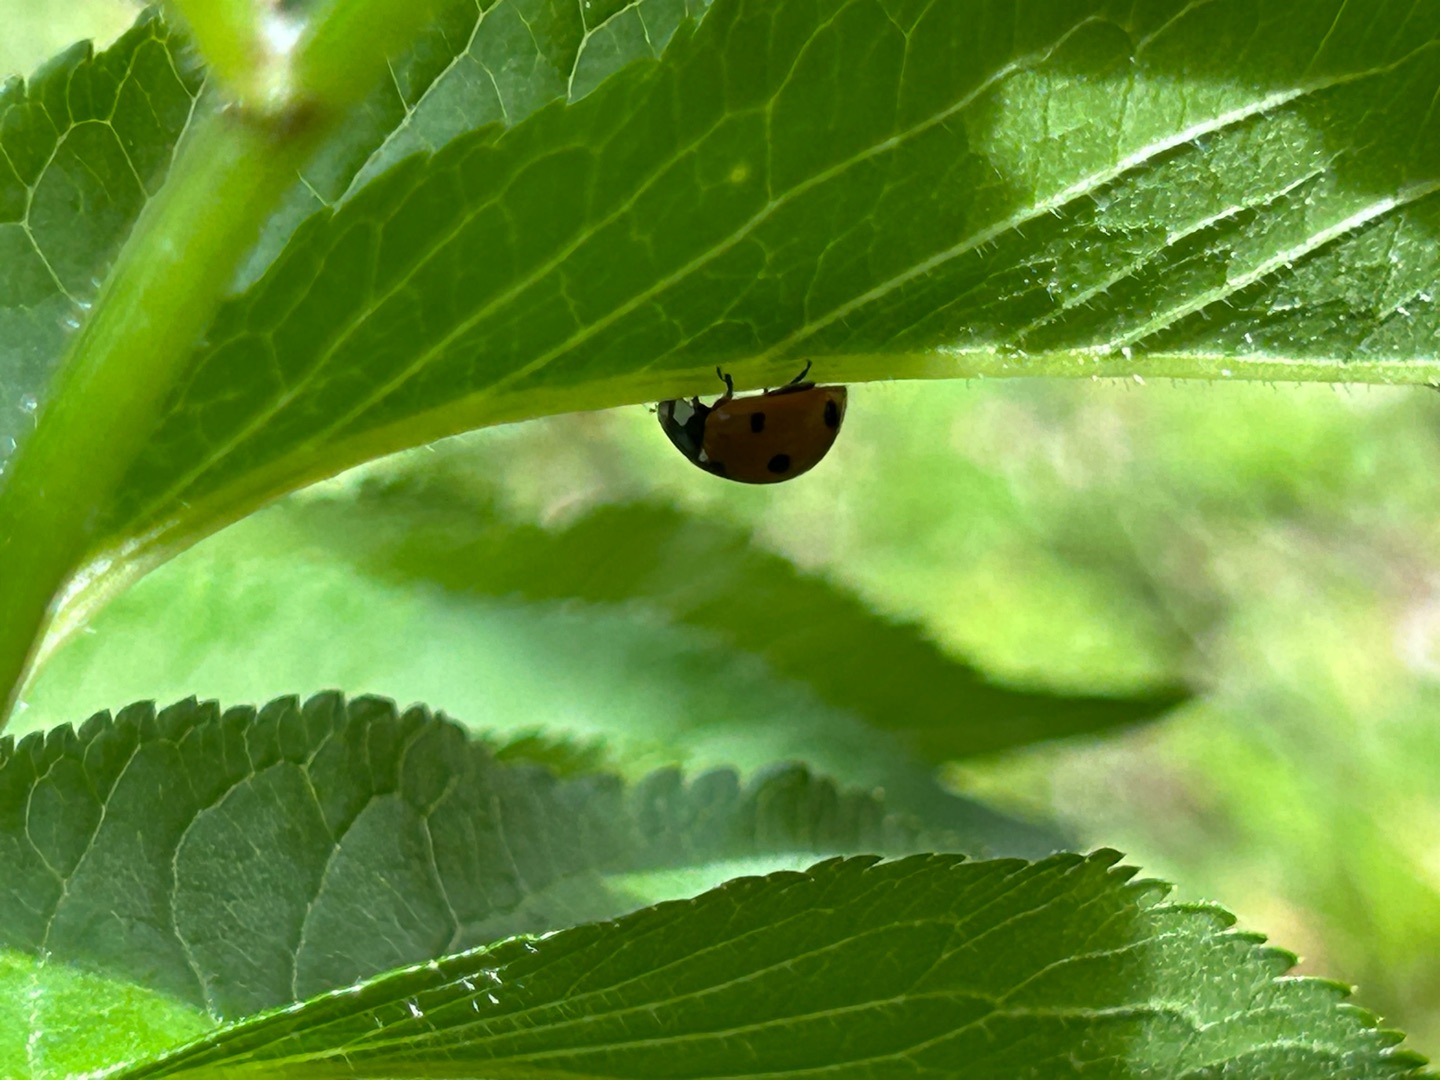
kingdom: Animalia
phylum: Arthropoda
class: Insecta
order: Coleoptera
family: Coccinellidae
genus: Coccinella
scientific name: Coccinella septempunctata
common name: Syvplettet mariehøne
